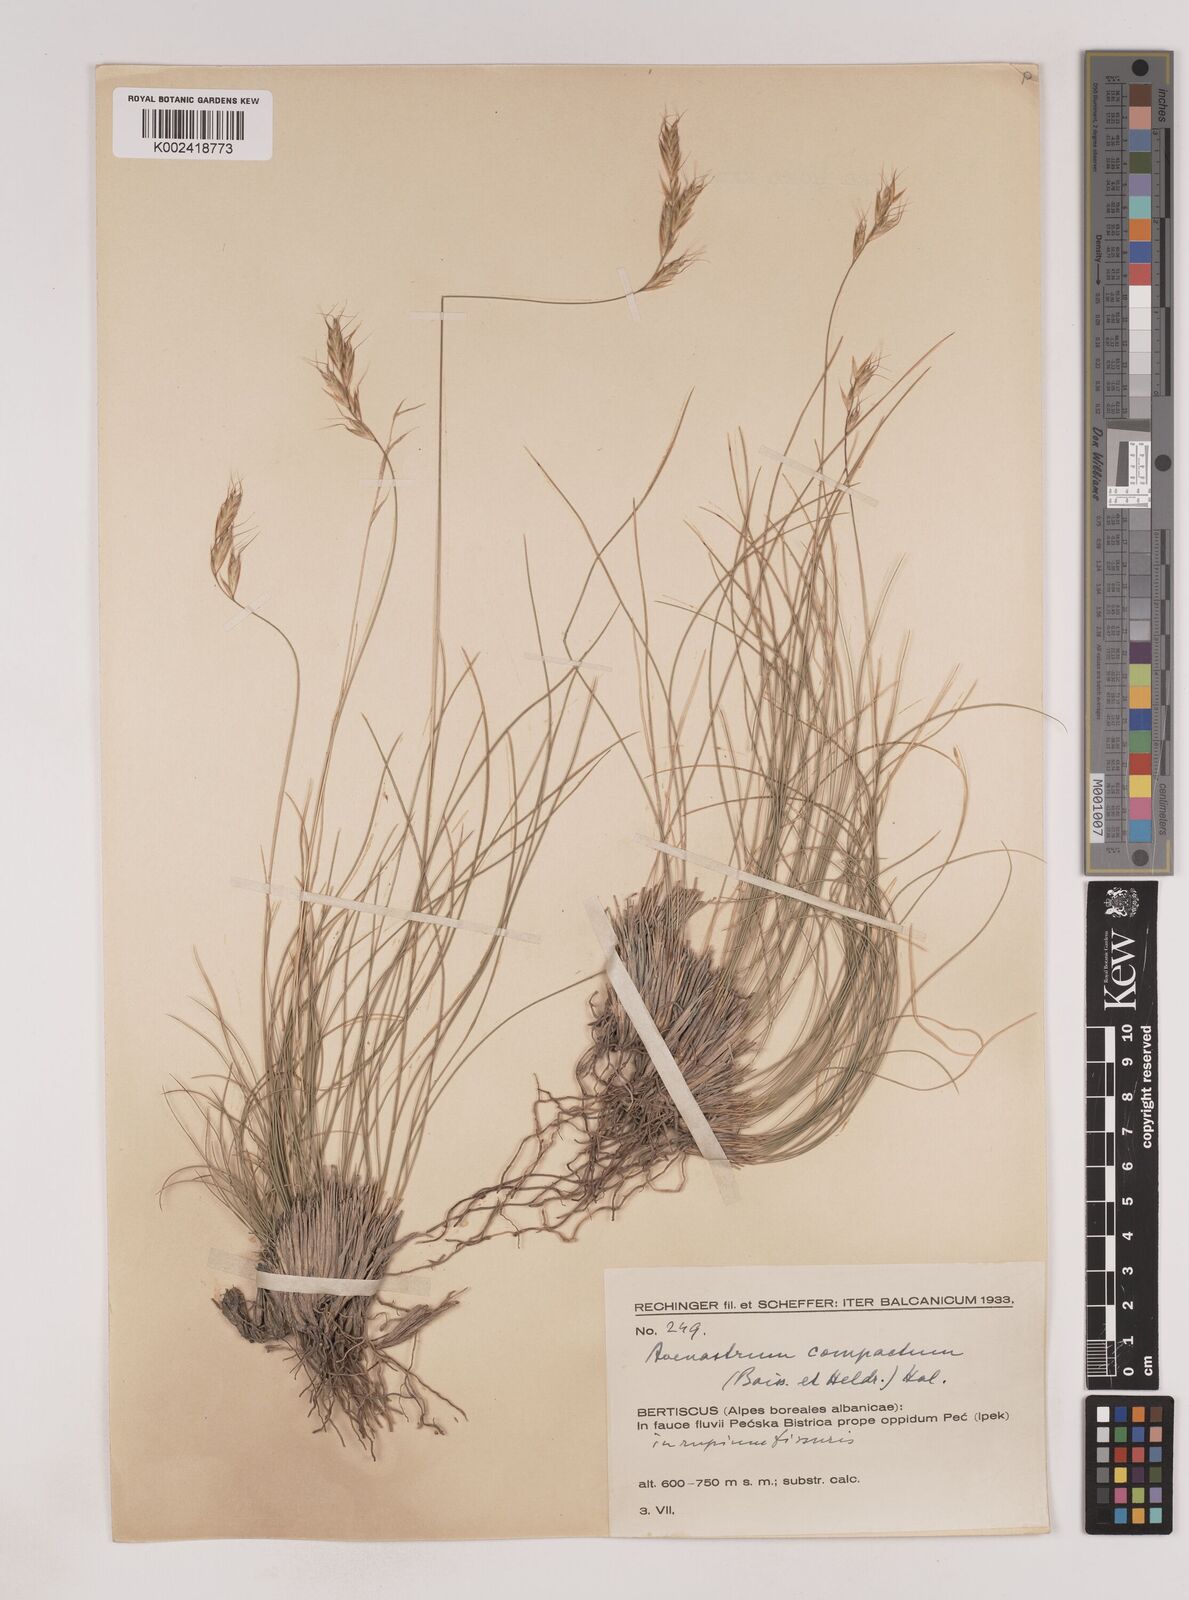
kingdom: Plantae
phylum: Tracheophyta
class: Liliopsida
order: Poales
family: Poaceae
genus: Danthoniastrum
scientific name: Danthoniastrum compactum
